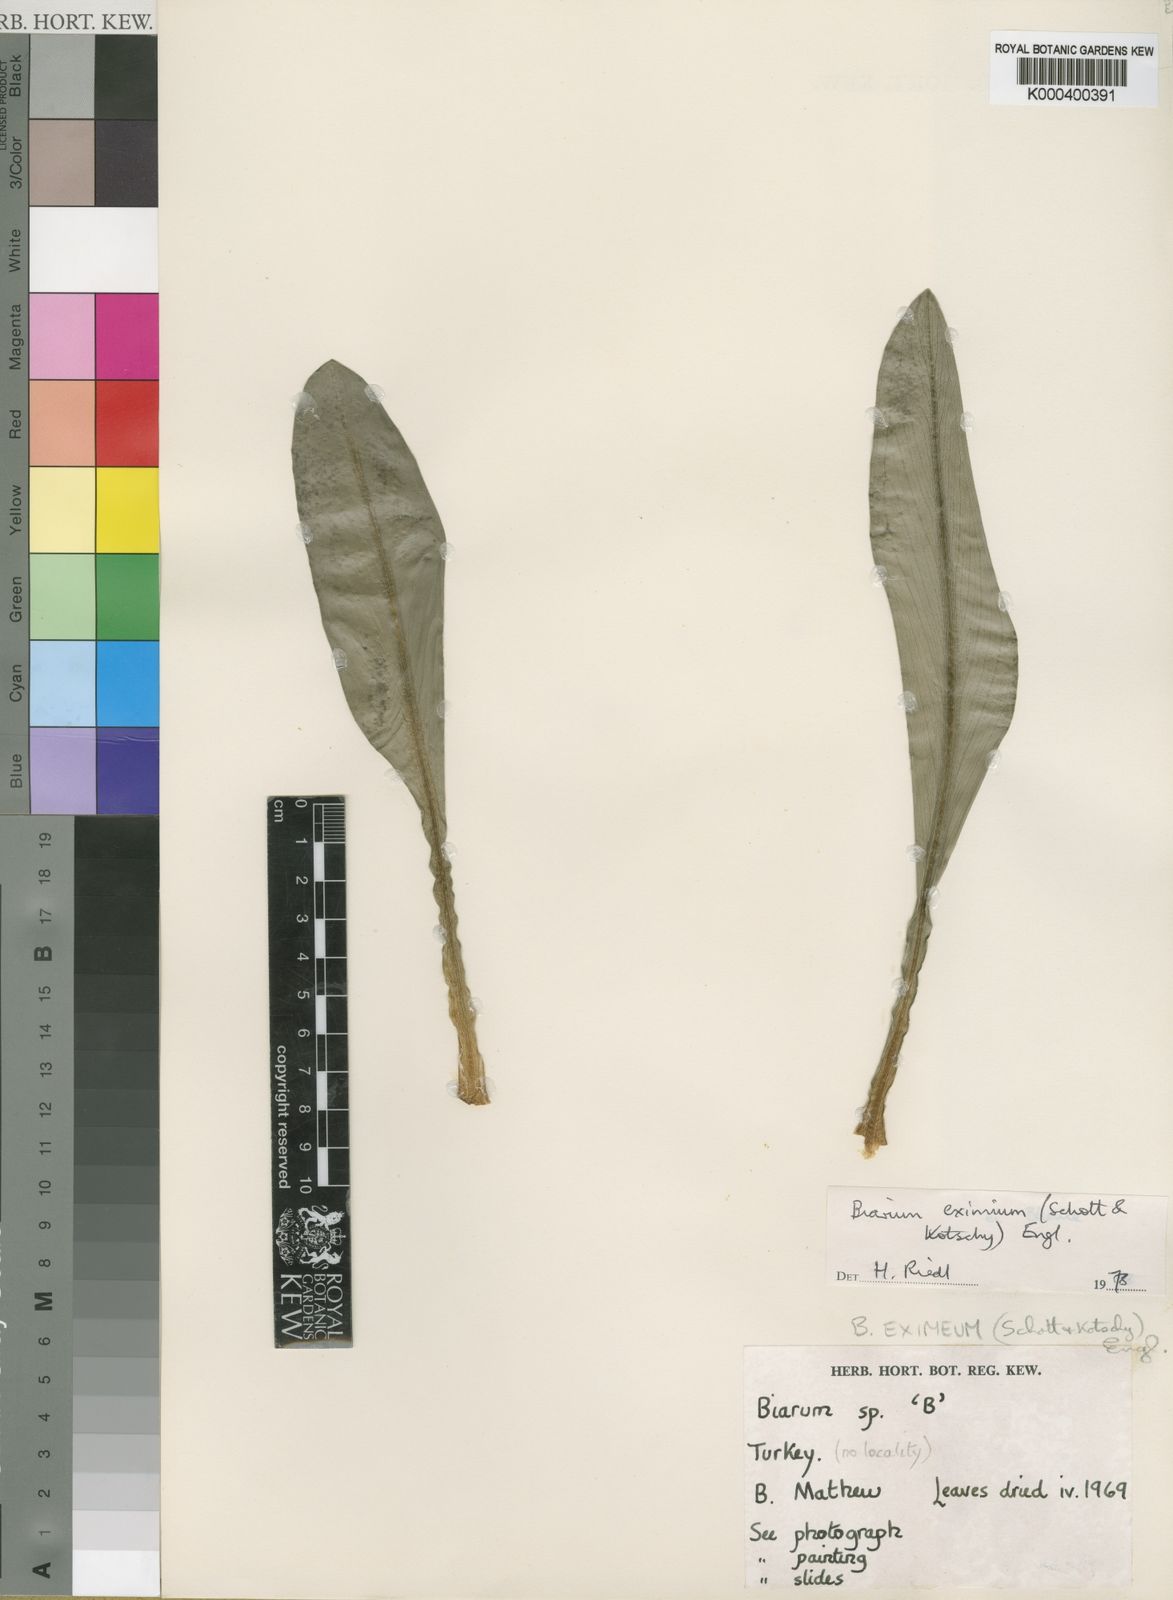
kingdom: Plantae
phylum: Tracheophyta
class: Liliopsida
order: Alismatales
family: Araceae
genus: Biarum
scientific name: Biarum eximium
